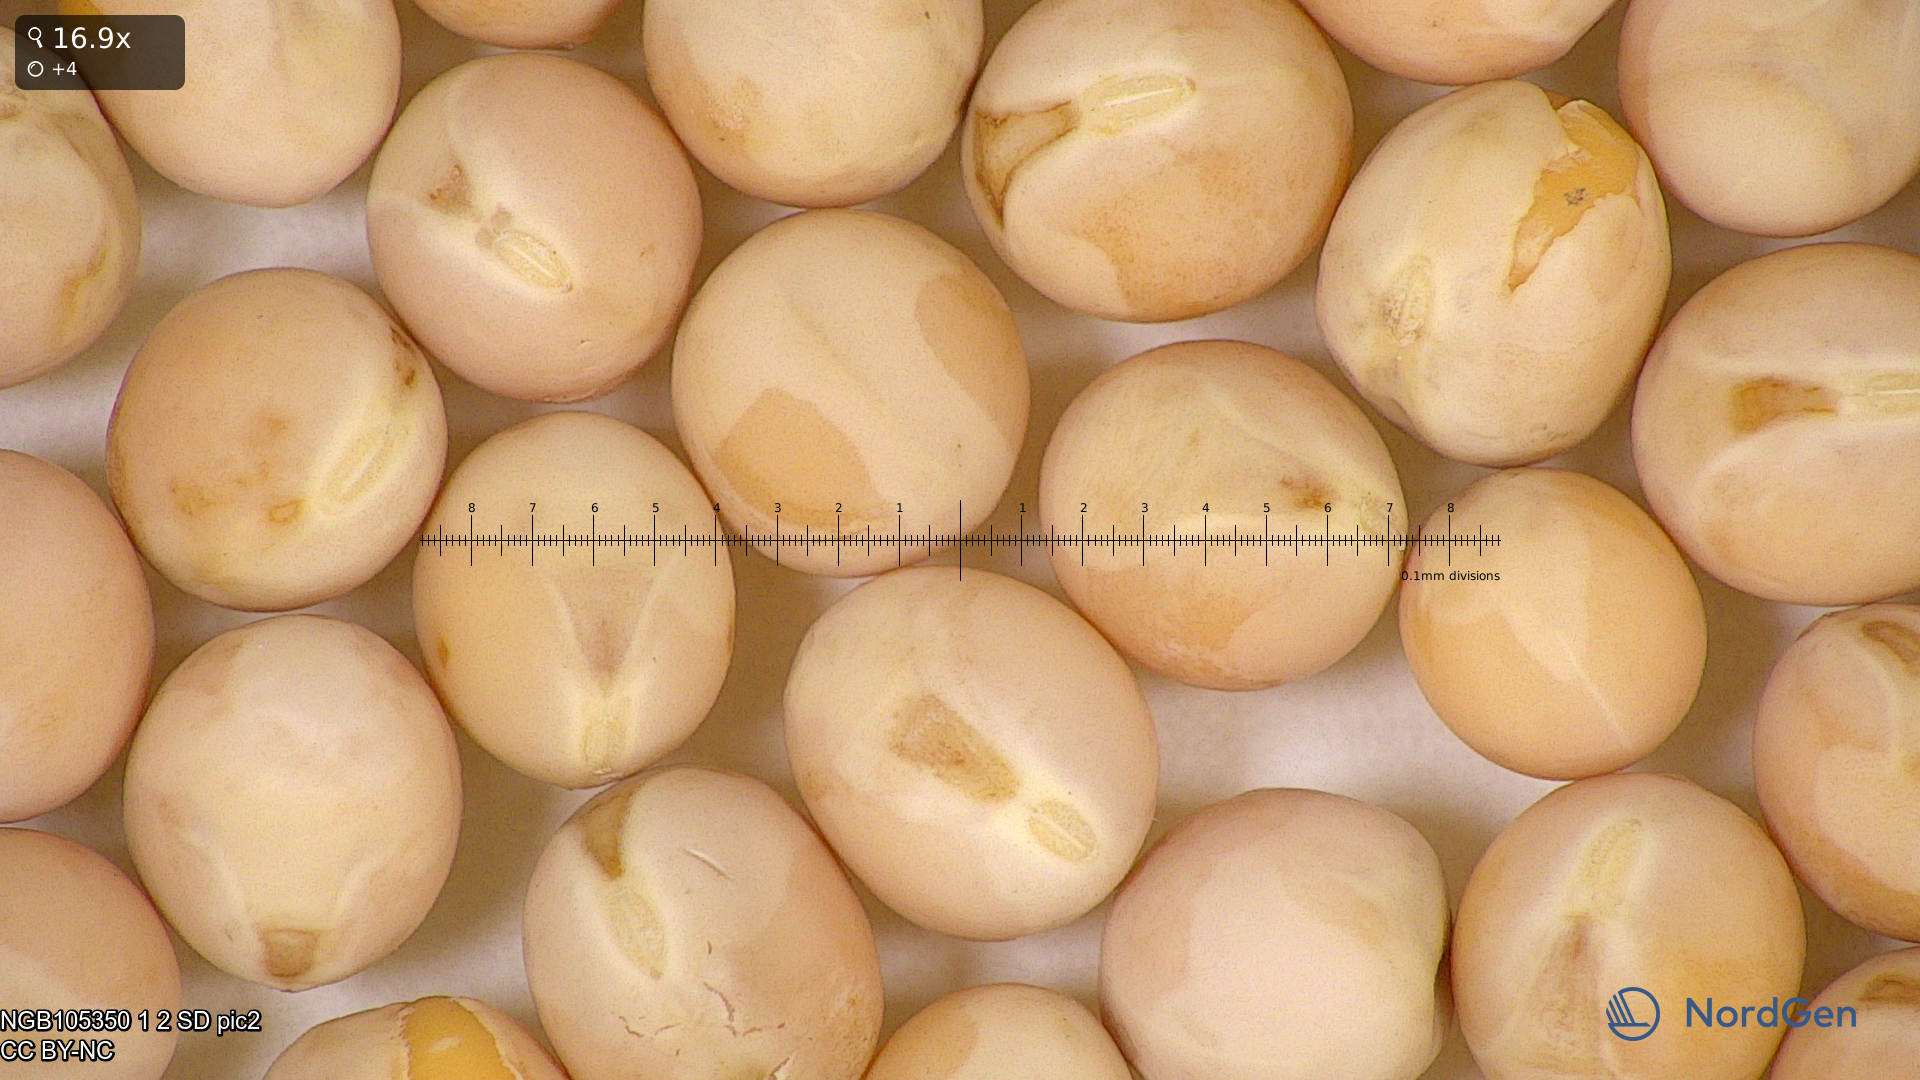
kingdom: Plantae
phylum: Tracheophyta
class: Magnoliopsida
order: Fabales
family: Fabaceae
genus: Lathyrus
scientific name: Lathyrus oleraceus
